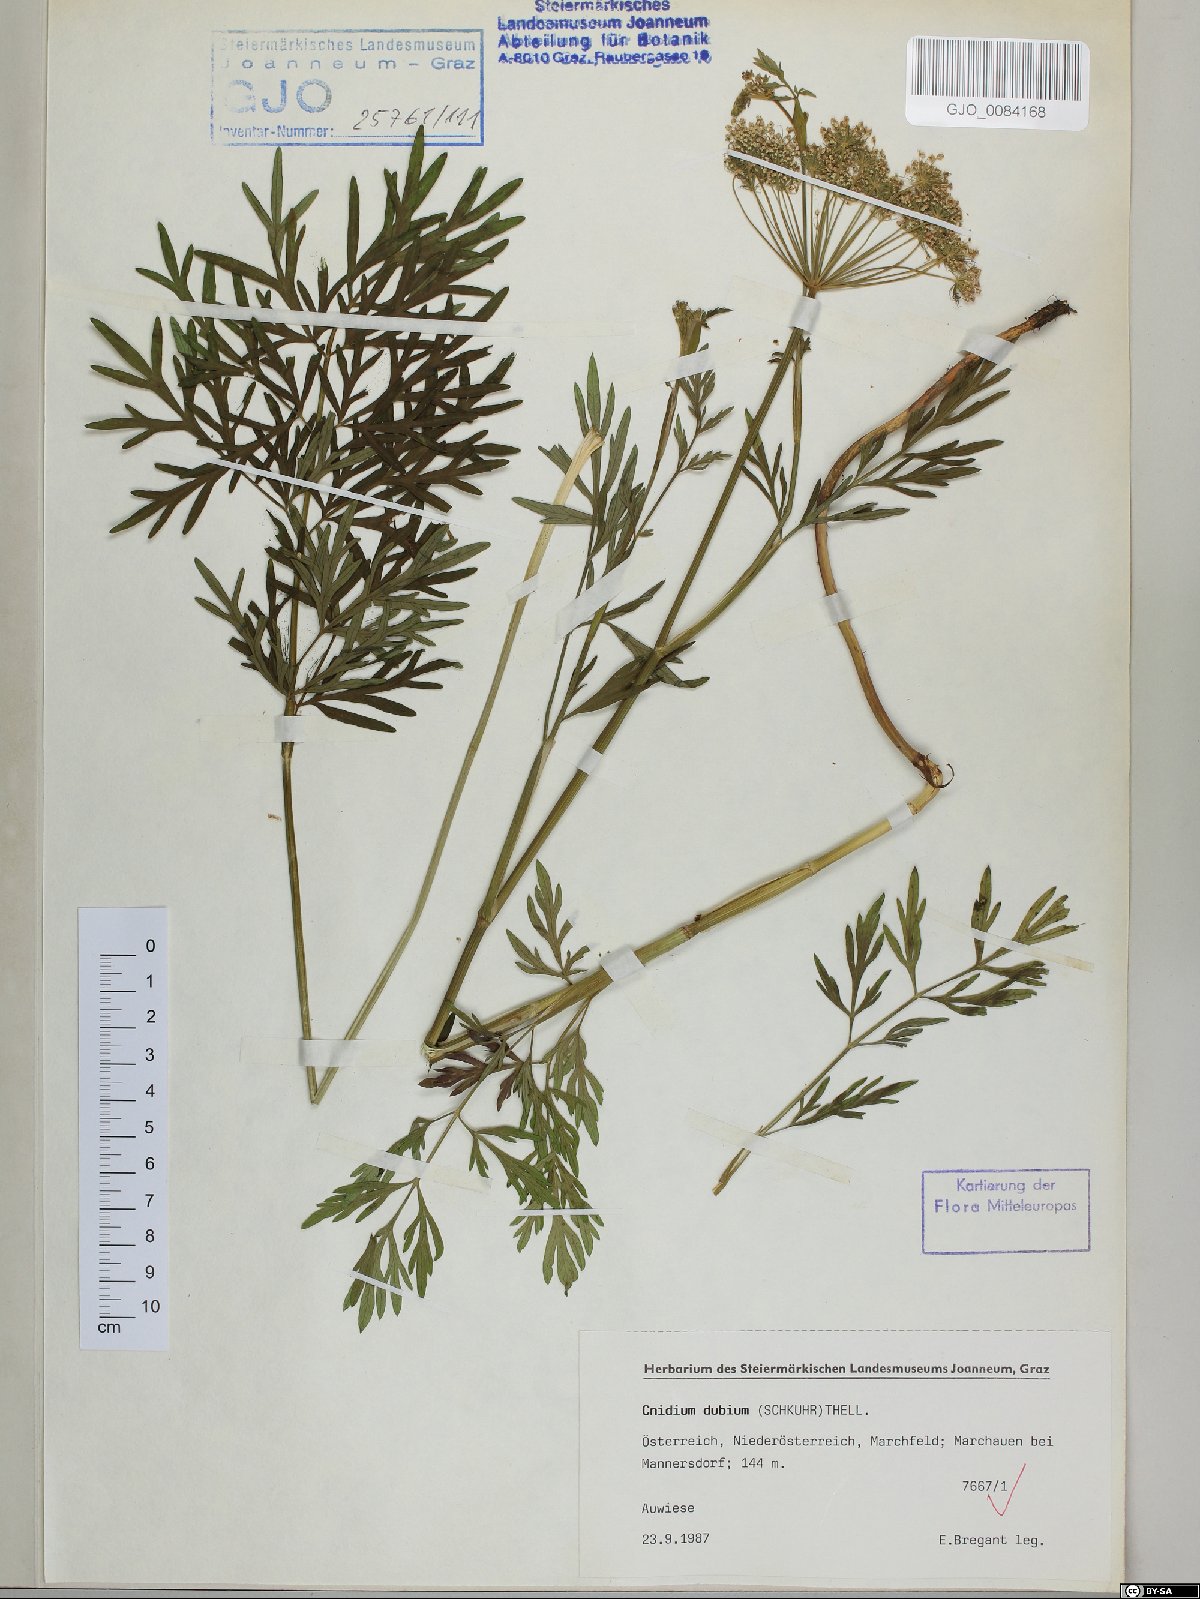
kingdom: Plantae
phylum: Tracheophyta
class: Magnoliopsida
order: Apiales
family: Apiaceae
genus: Kadenia
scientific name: Kadenia dubia
